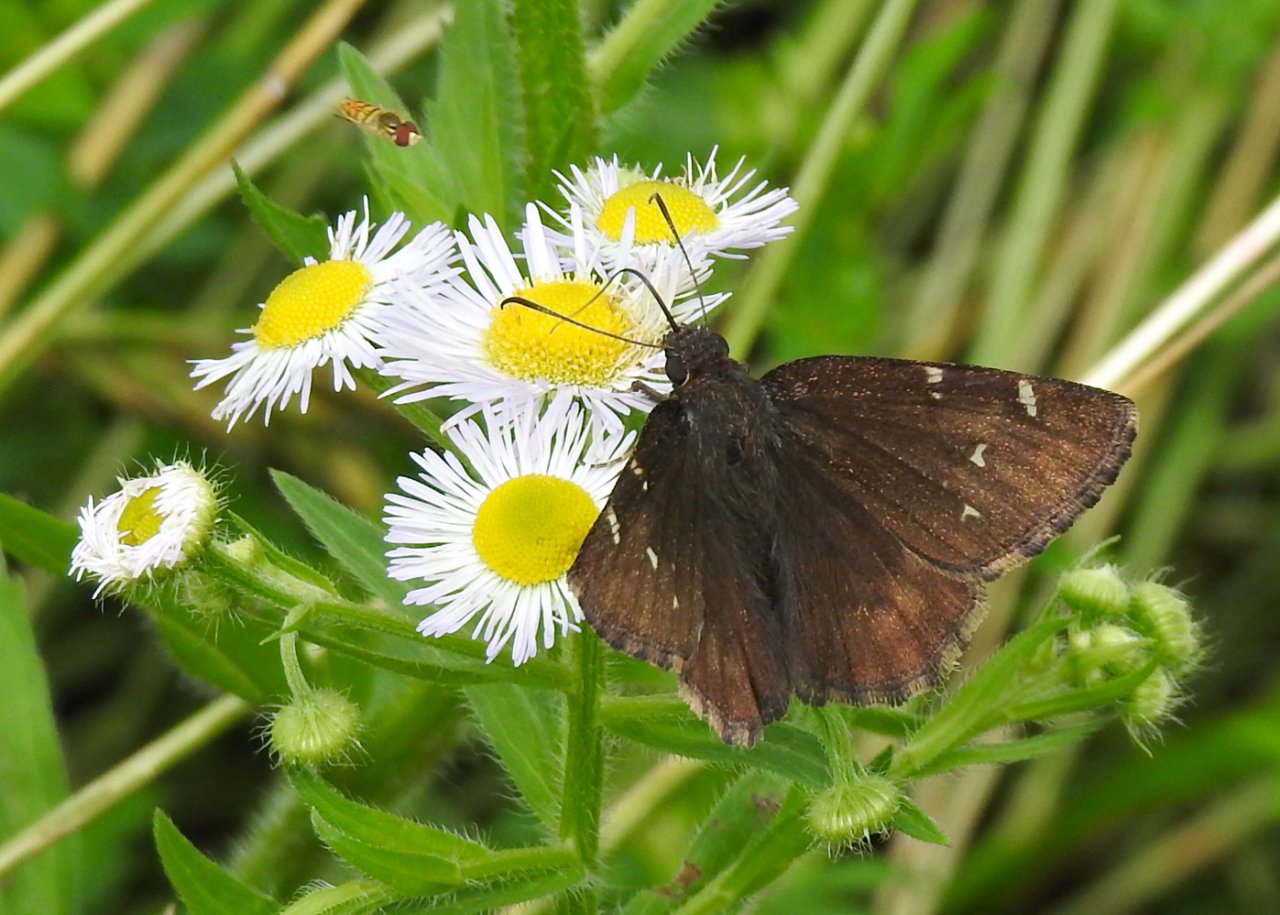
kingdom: Animalia
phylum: Arthropoda
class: Insecta
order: Lepidoptera
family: Hesperiidae
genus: Autochton
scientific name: Autochton
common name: Northern Cloudywing
